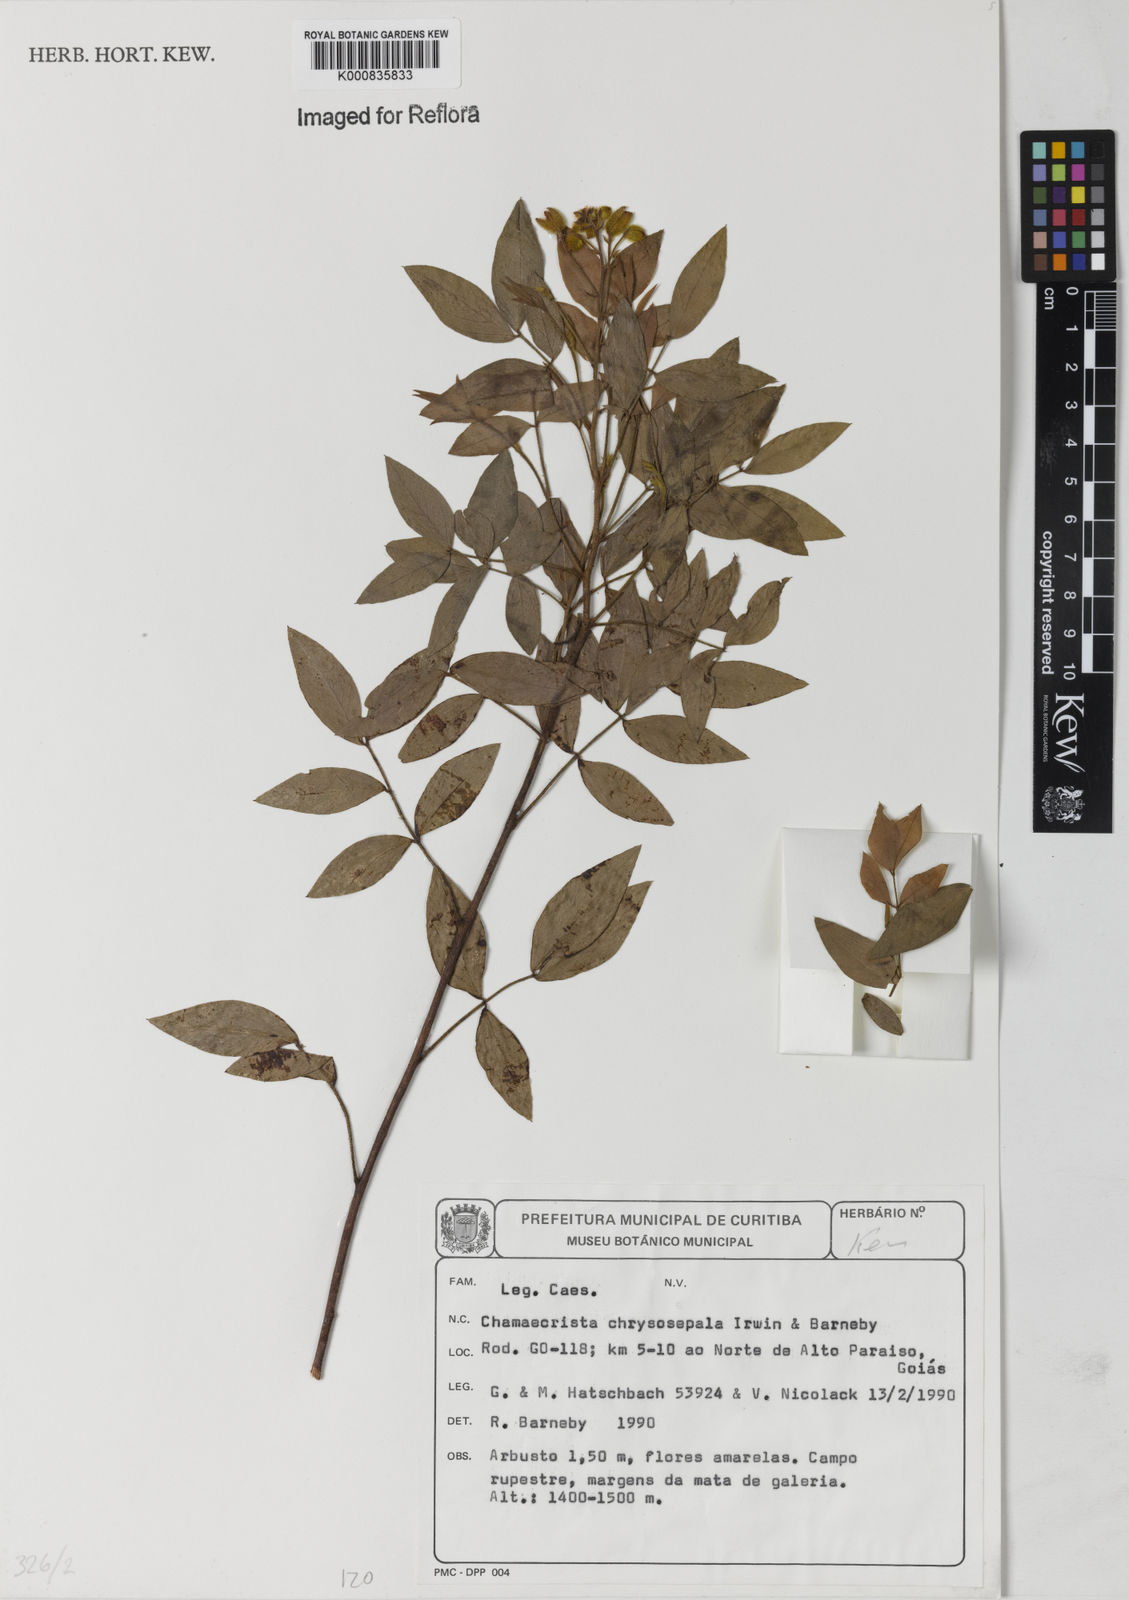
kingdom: Plantae
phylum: Tracheophyta
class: Magnoliopsida
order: Fabales
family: Fabaceae
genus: Chamaecrista
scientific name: Chamaecrista chrysosepala
